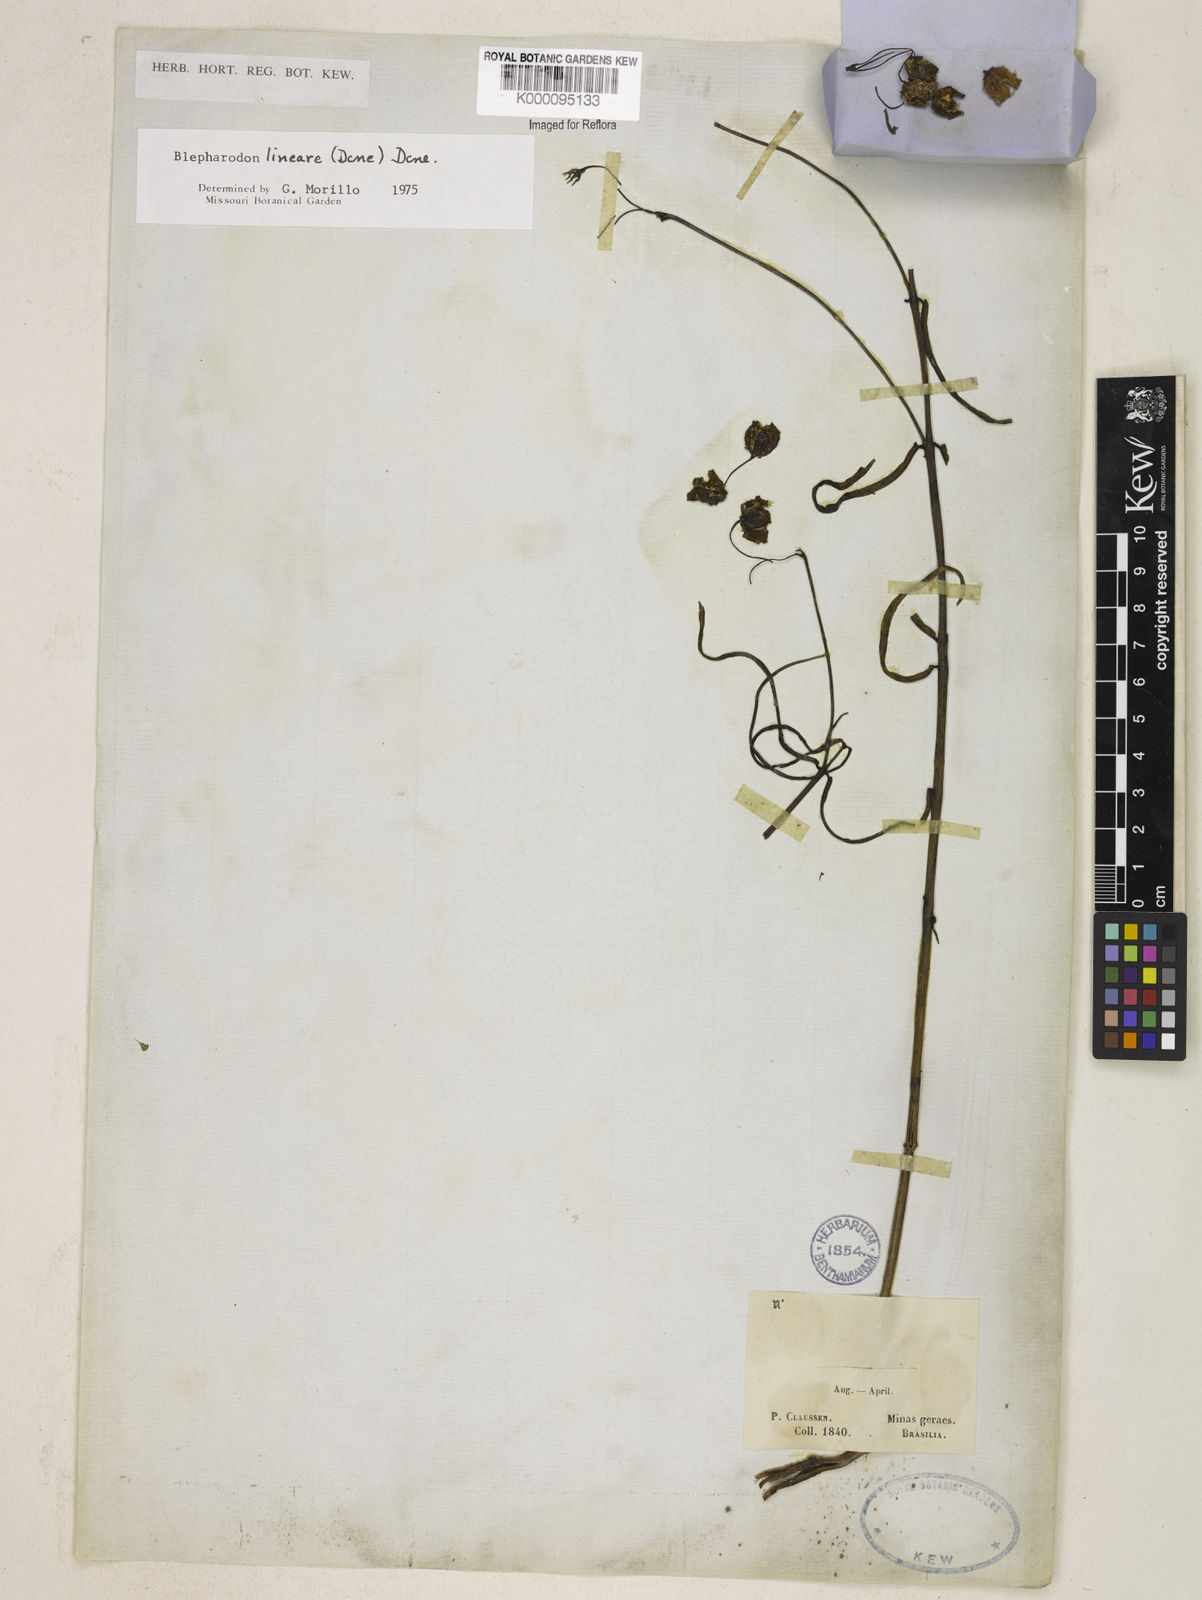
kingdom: Plantae
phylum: Tracheophyta
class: Magnoliopsida
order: Gentianales
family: Apocynaceae
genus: Blepharodon
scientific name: Blepharodon lineare
